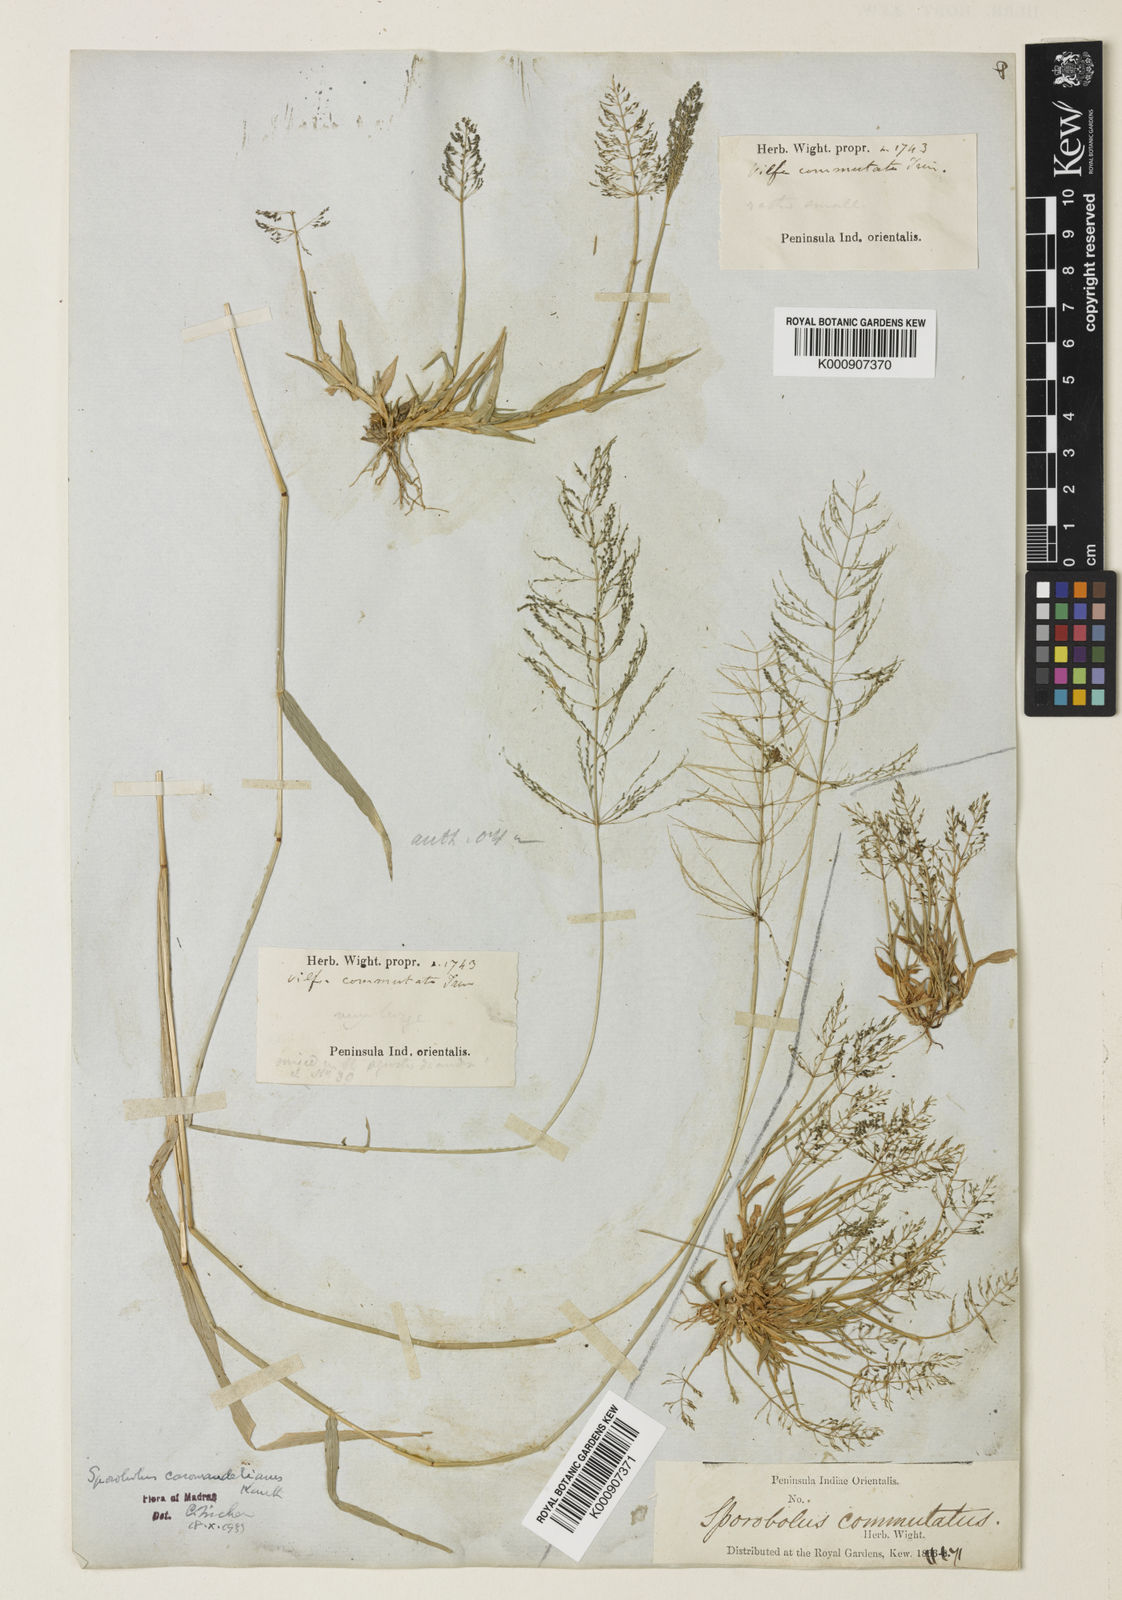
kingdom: Plantae
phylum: Tracheophyta
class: Liliopsida
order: Poales
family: Poaceae
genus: Sporobolus
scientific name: Sporobolus coromandelianus
